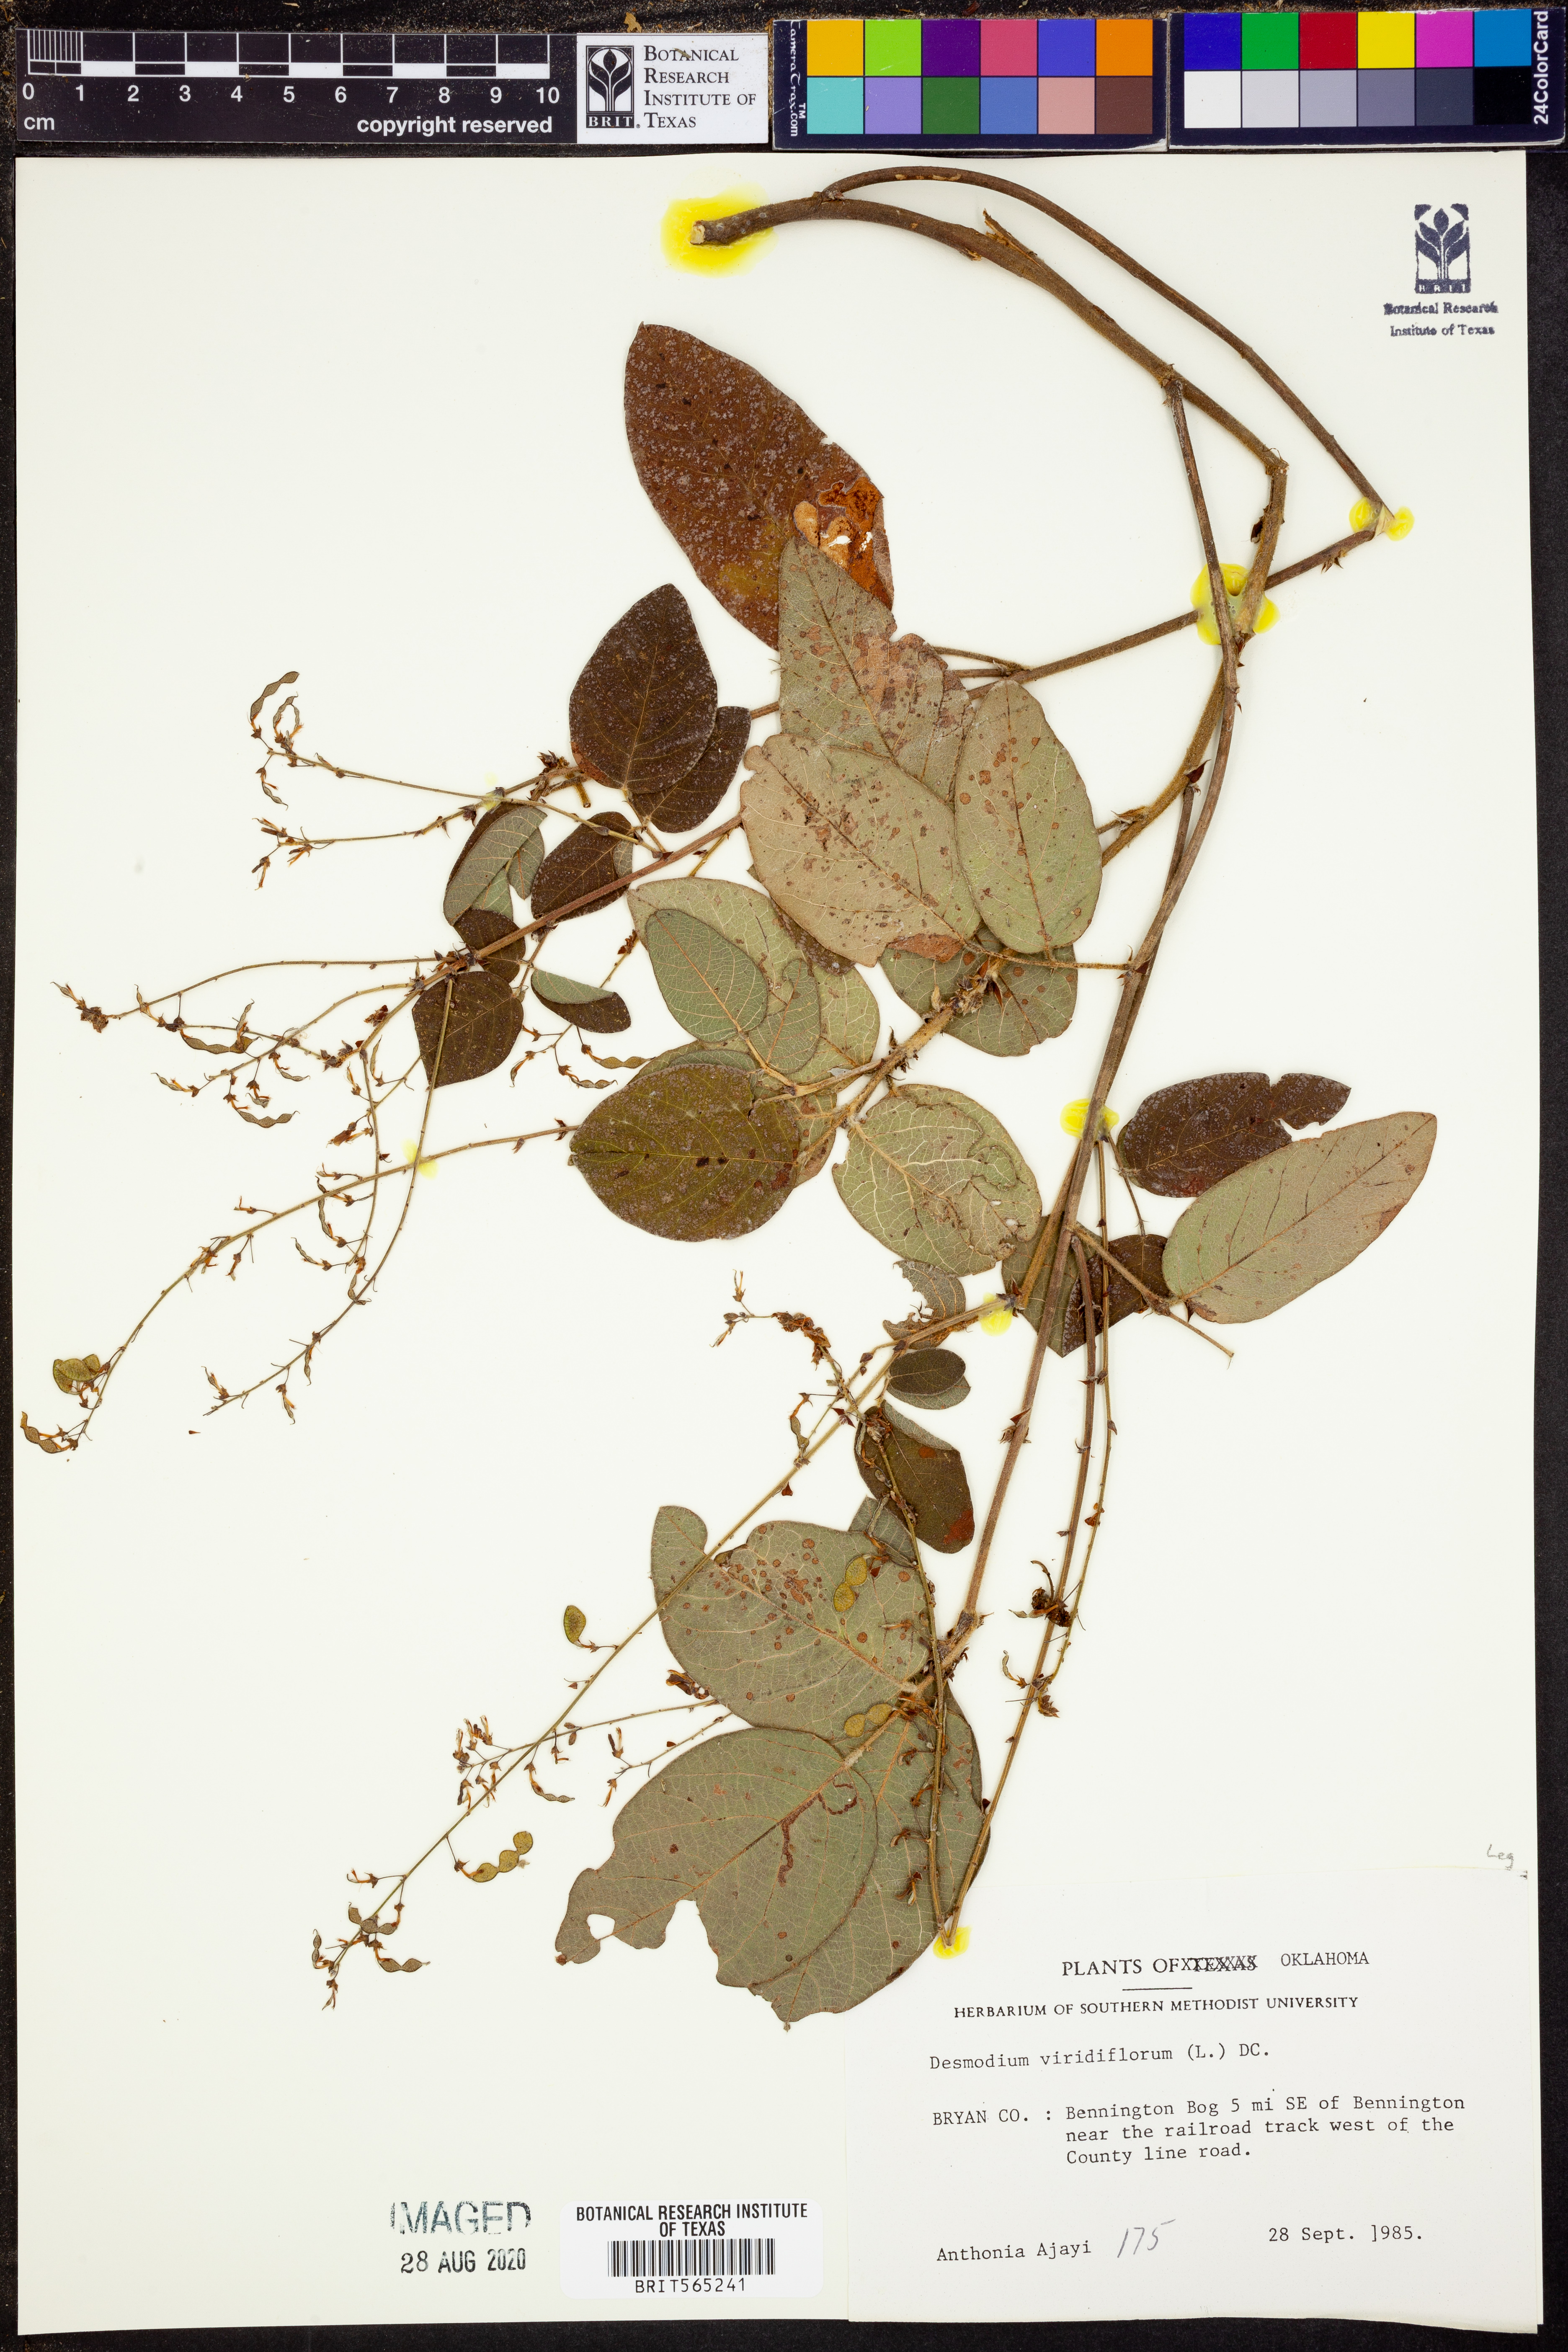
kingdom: Plantae
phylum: Tracheophyta
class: Magnoliopsida
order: Fabales
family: Fabaceae
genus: Desmodium
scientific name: Desmodium viridiflorum
